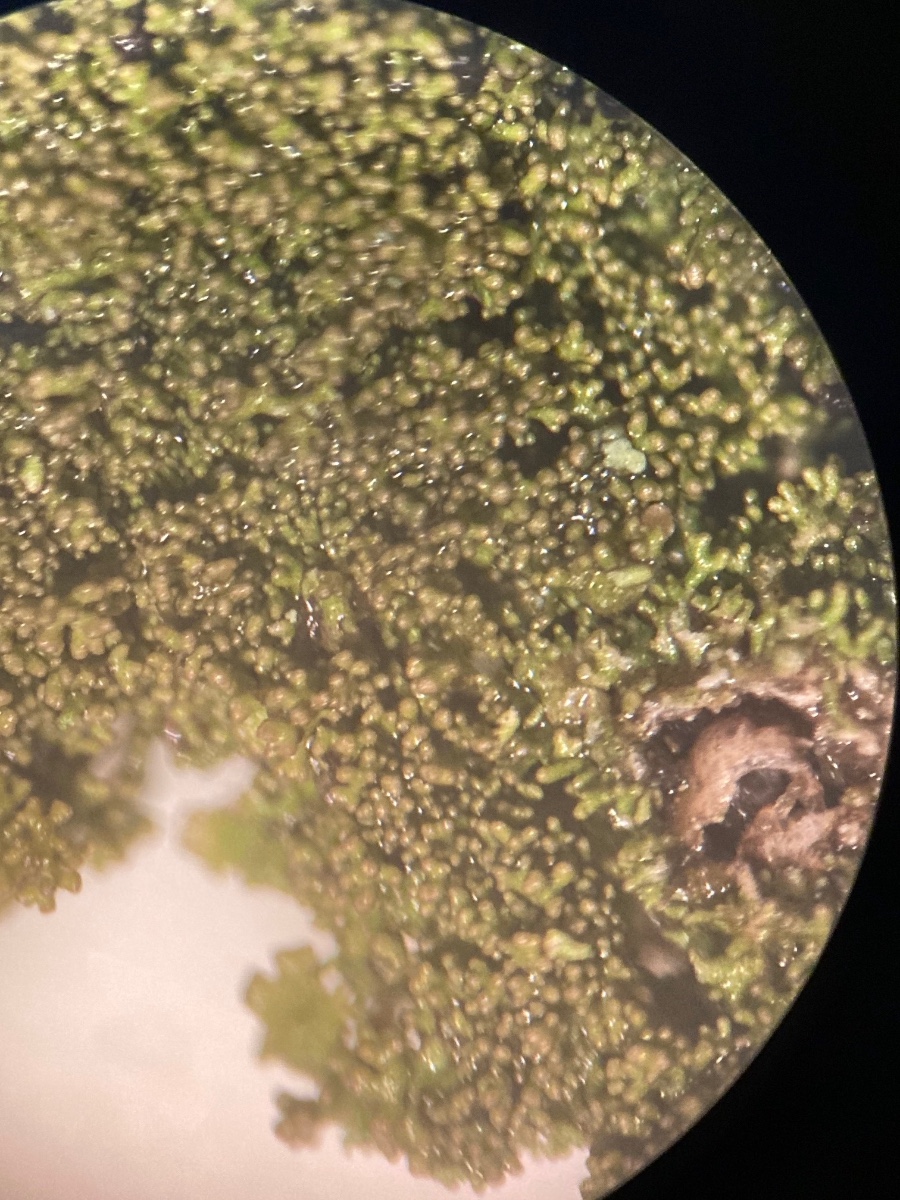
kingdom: Fungi
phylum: Ascomycota
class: Lecanoromycetes
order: Lecanorales
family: Parmeliaceae
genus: Melanohalea
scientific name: Melanohalea exasperatula
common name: kølle-skållav
